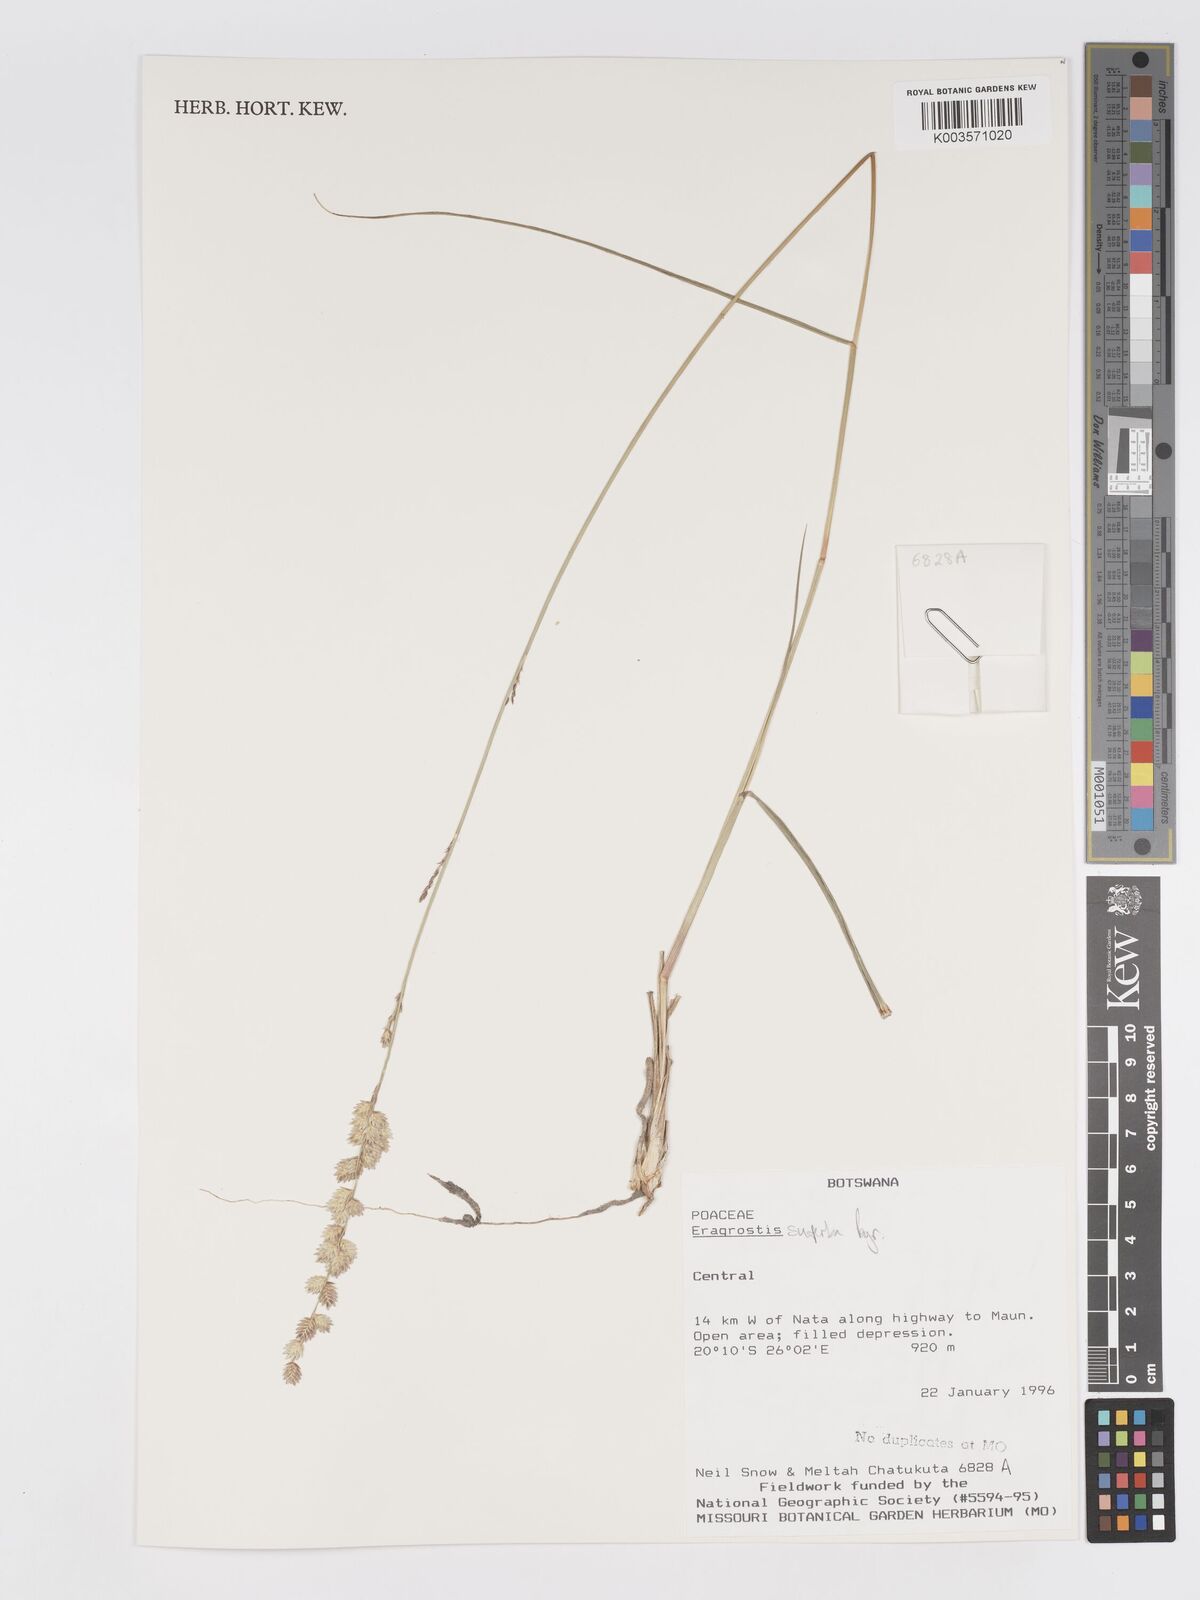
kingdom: Plantae
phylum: Tracheophyta
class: Liliopsida
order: Poales
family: Poaceae
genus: Eragrostis
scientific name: Eragrostis superba
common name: Wilman lovegrass
